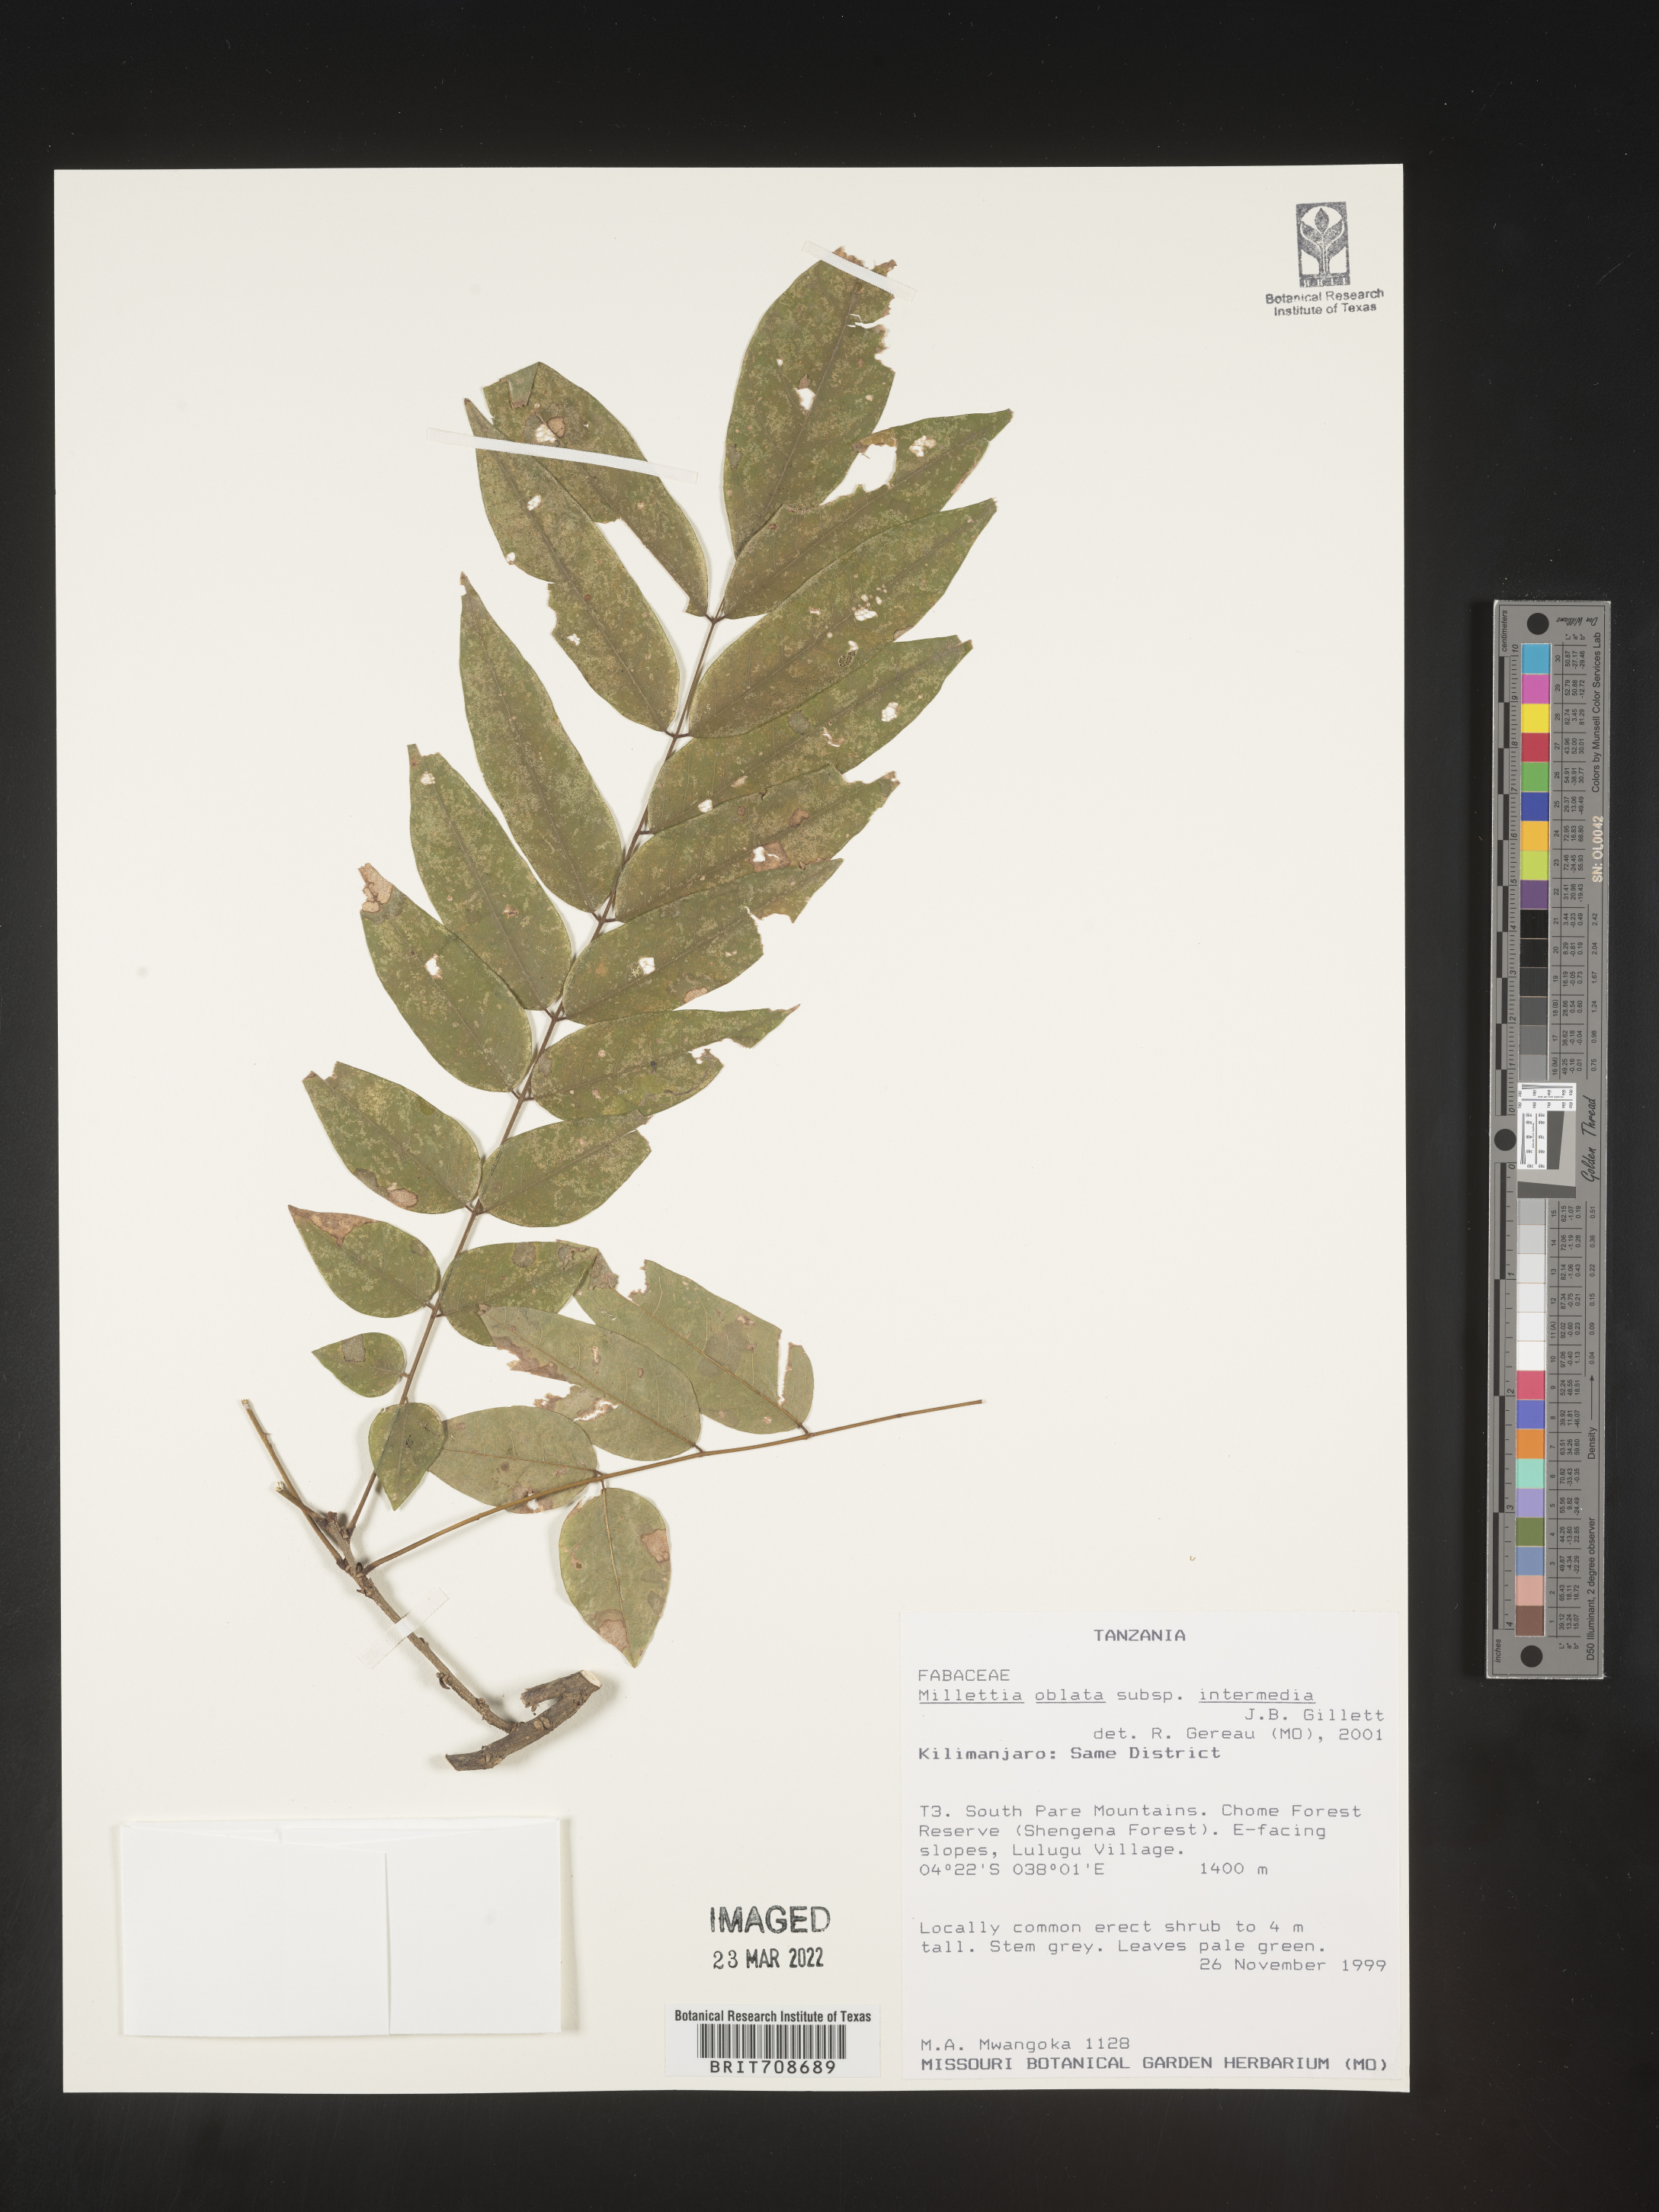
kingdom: Plantae
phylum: Tracheophyta
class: Magnoliopsida
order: Fabales
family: Fabaceae
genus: Millettia
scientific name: Millettia
